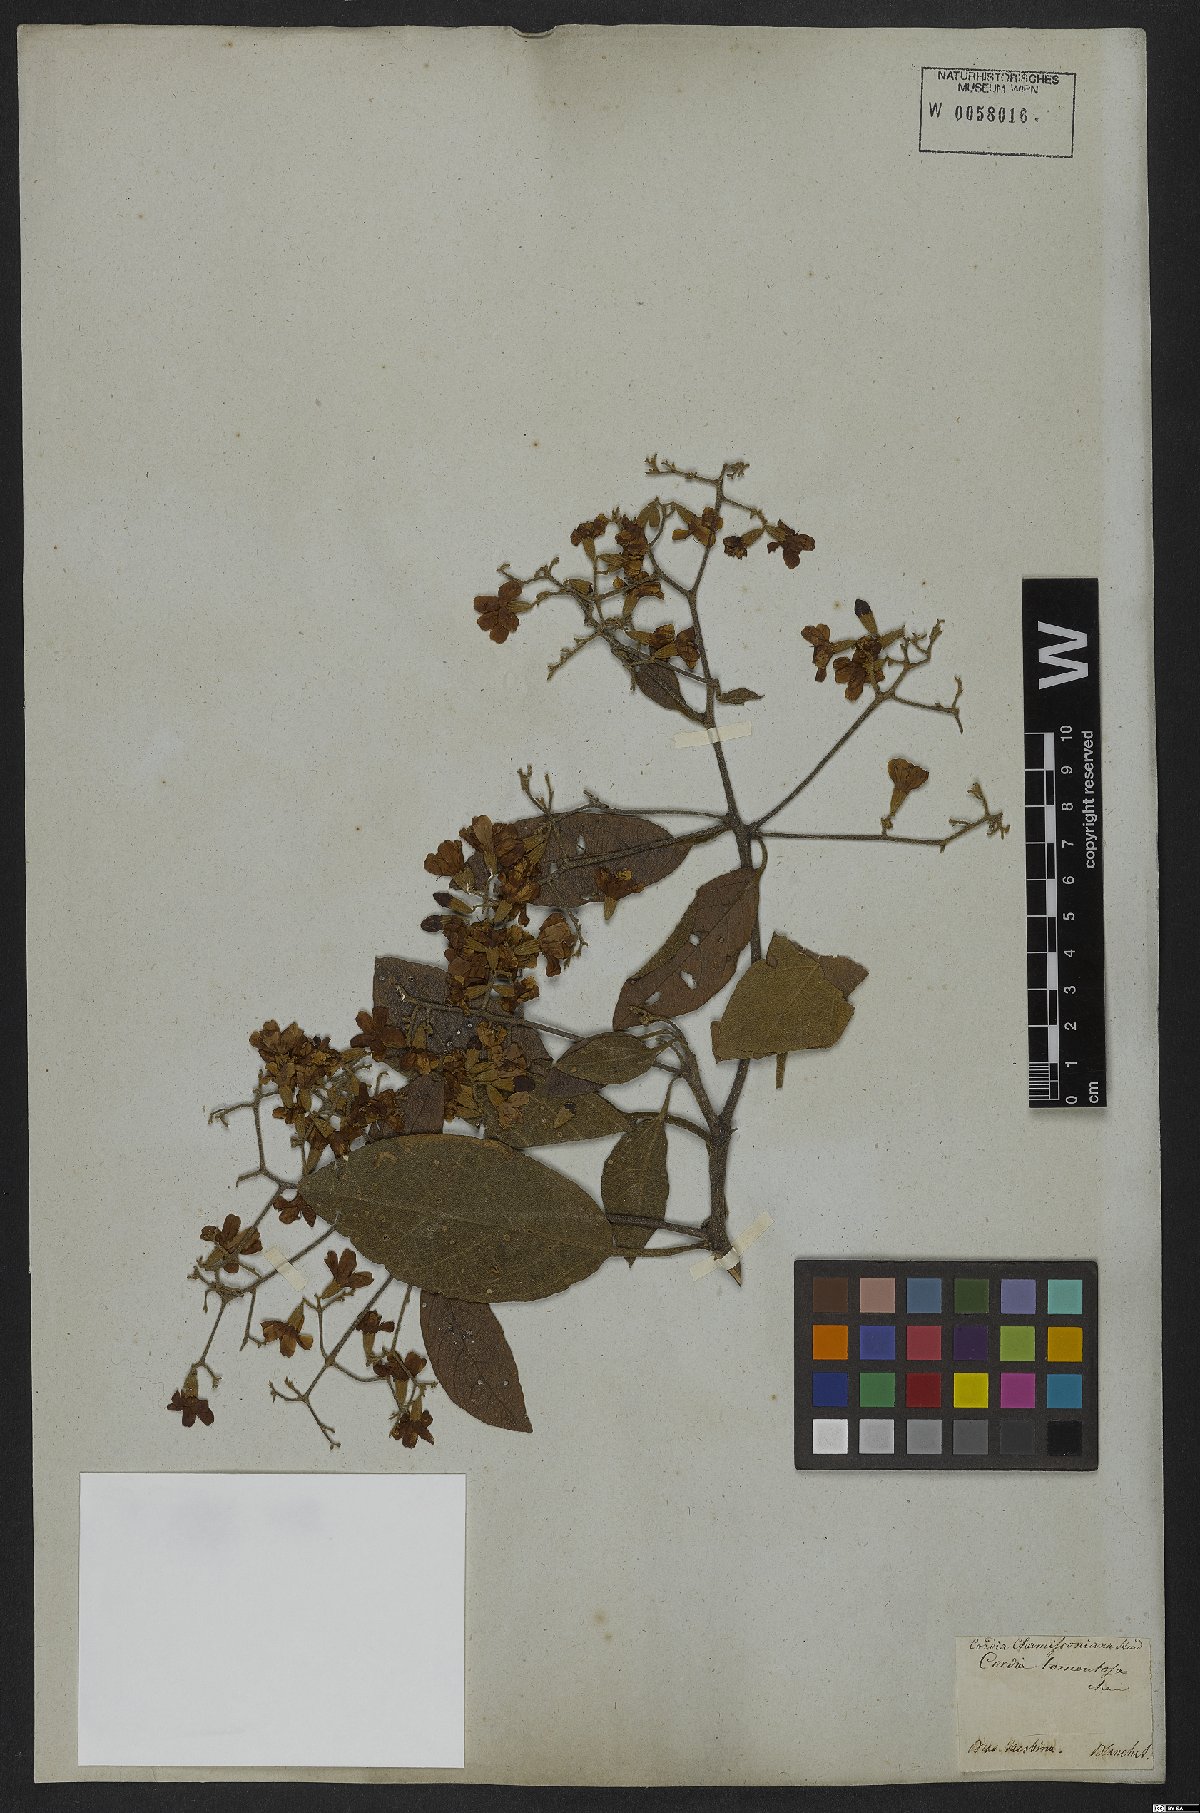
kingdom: Plantae
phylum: Tracheophyta
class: Magnoliopsida
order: Boraginales
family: Cordiaceae
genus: Cordia
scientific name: Cordia chamissoniana
